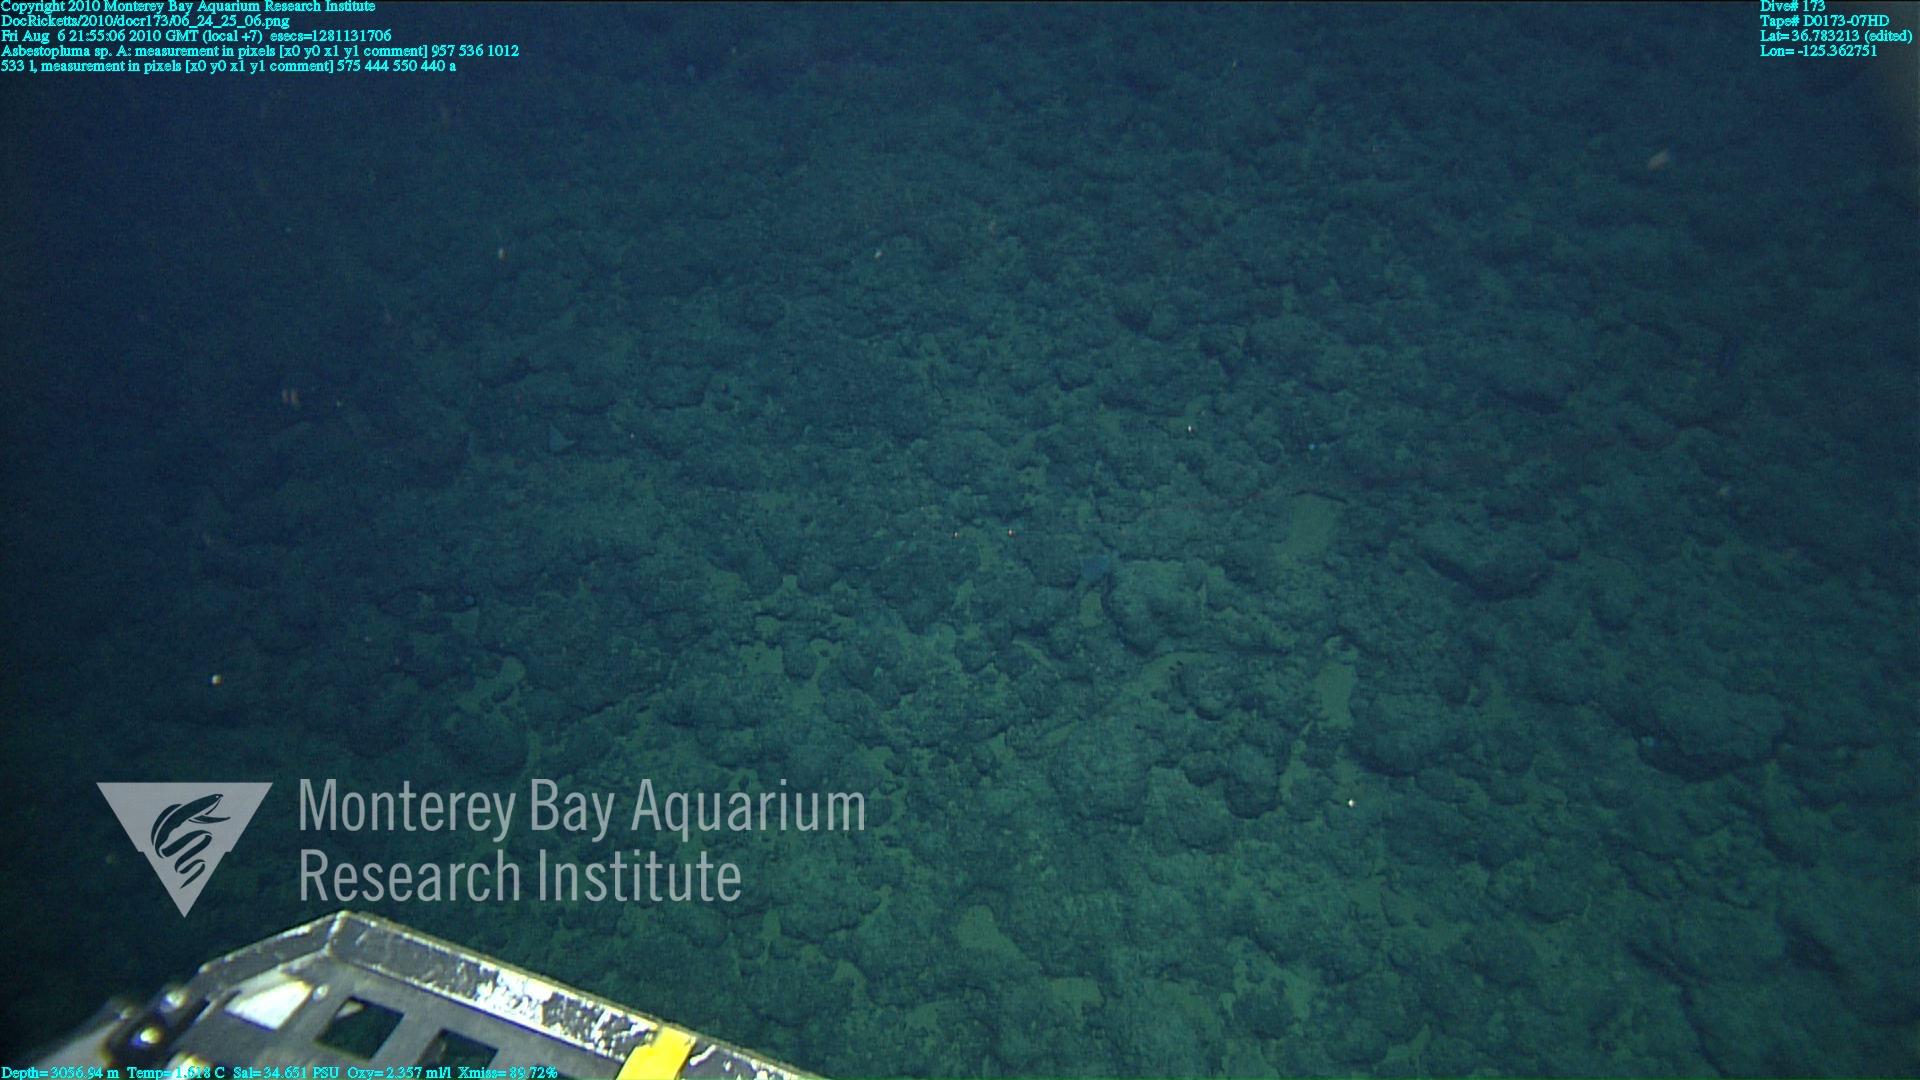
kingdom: Animalia
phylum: Porifera
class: Demospongiae
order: Poecilosclerida
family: Cladorhizidae
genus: Asbestopluma
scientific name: Asbestopluma
